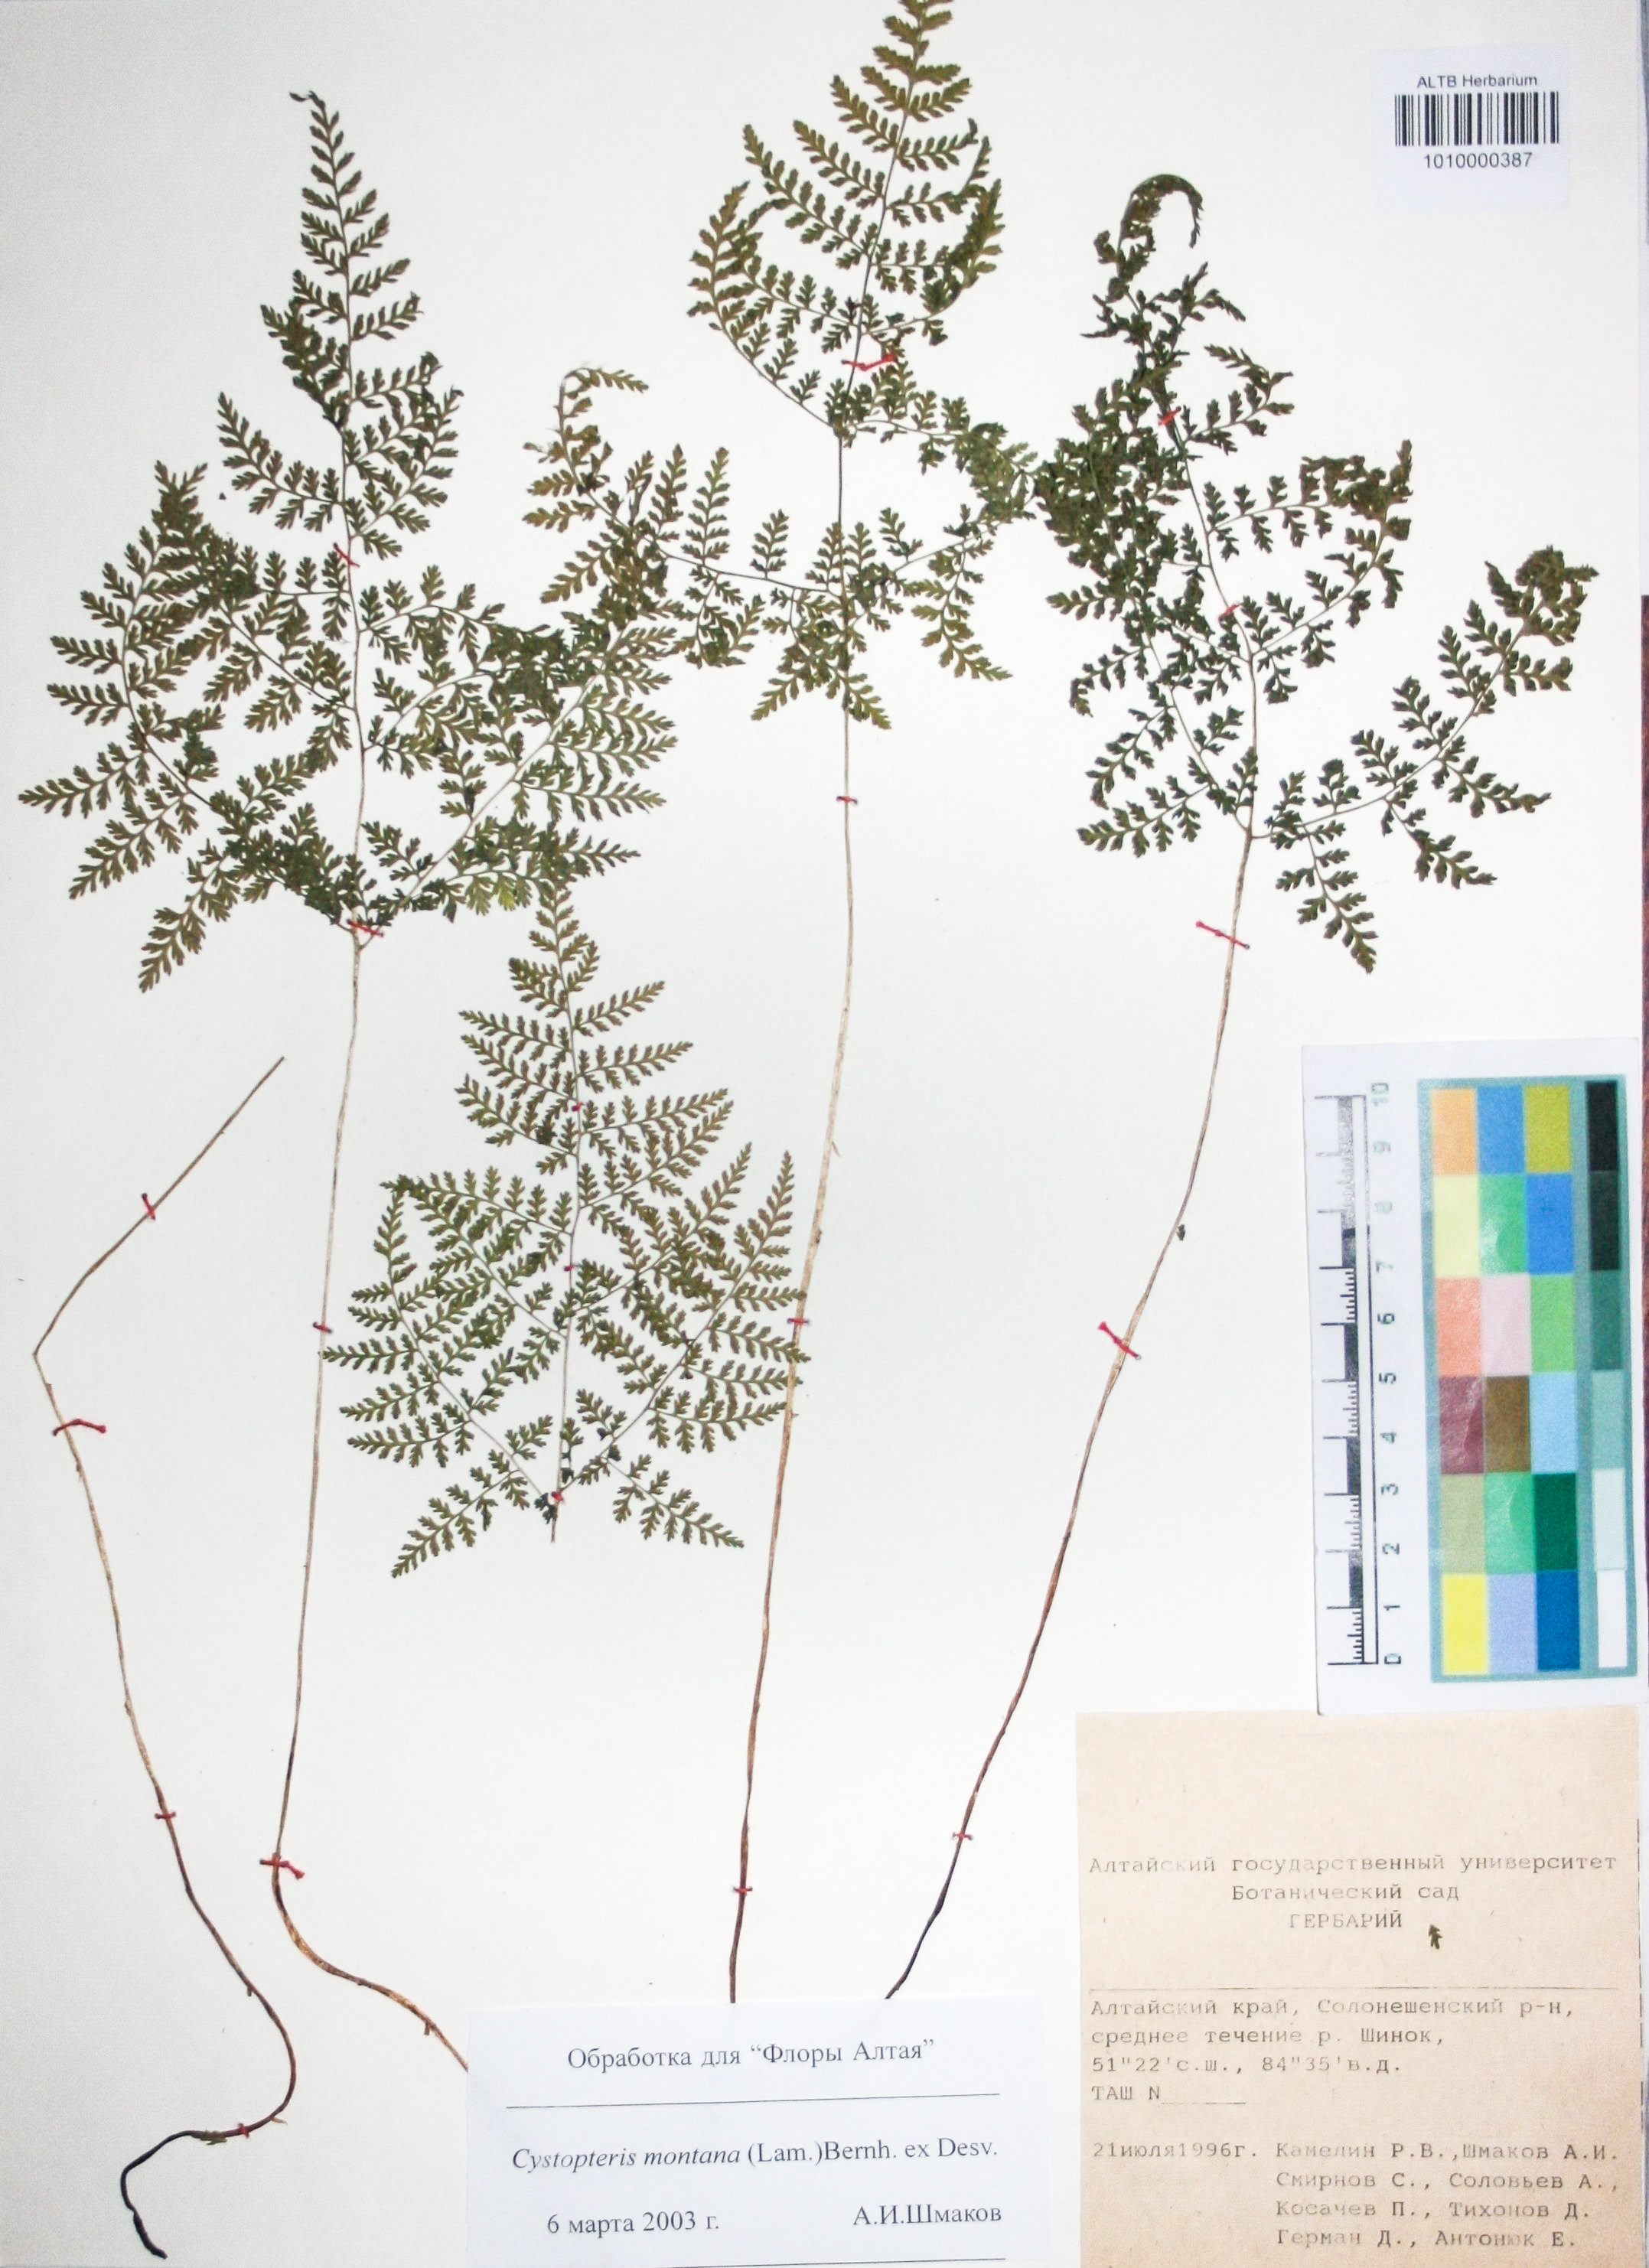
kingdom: Plantae
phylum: Tracheophyta
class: Polypodiopsida
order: Polypodiales
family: Cystopteridaceae
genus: Cystopteris
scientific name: Cystopteris montana
